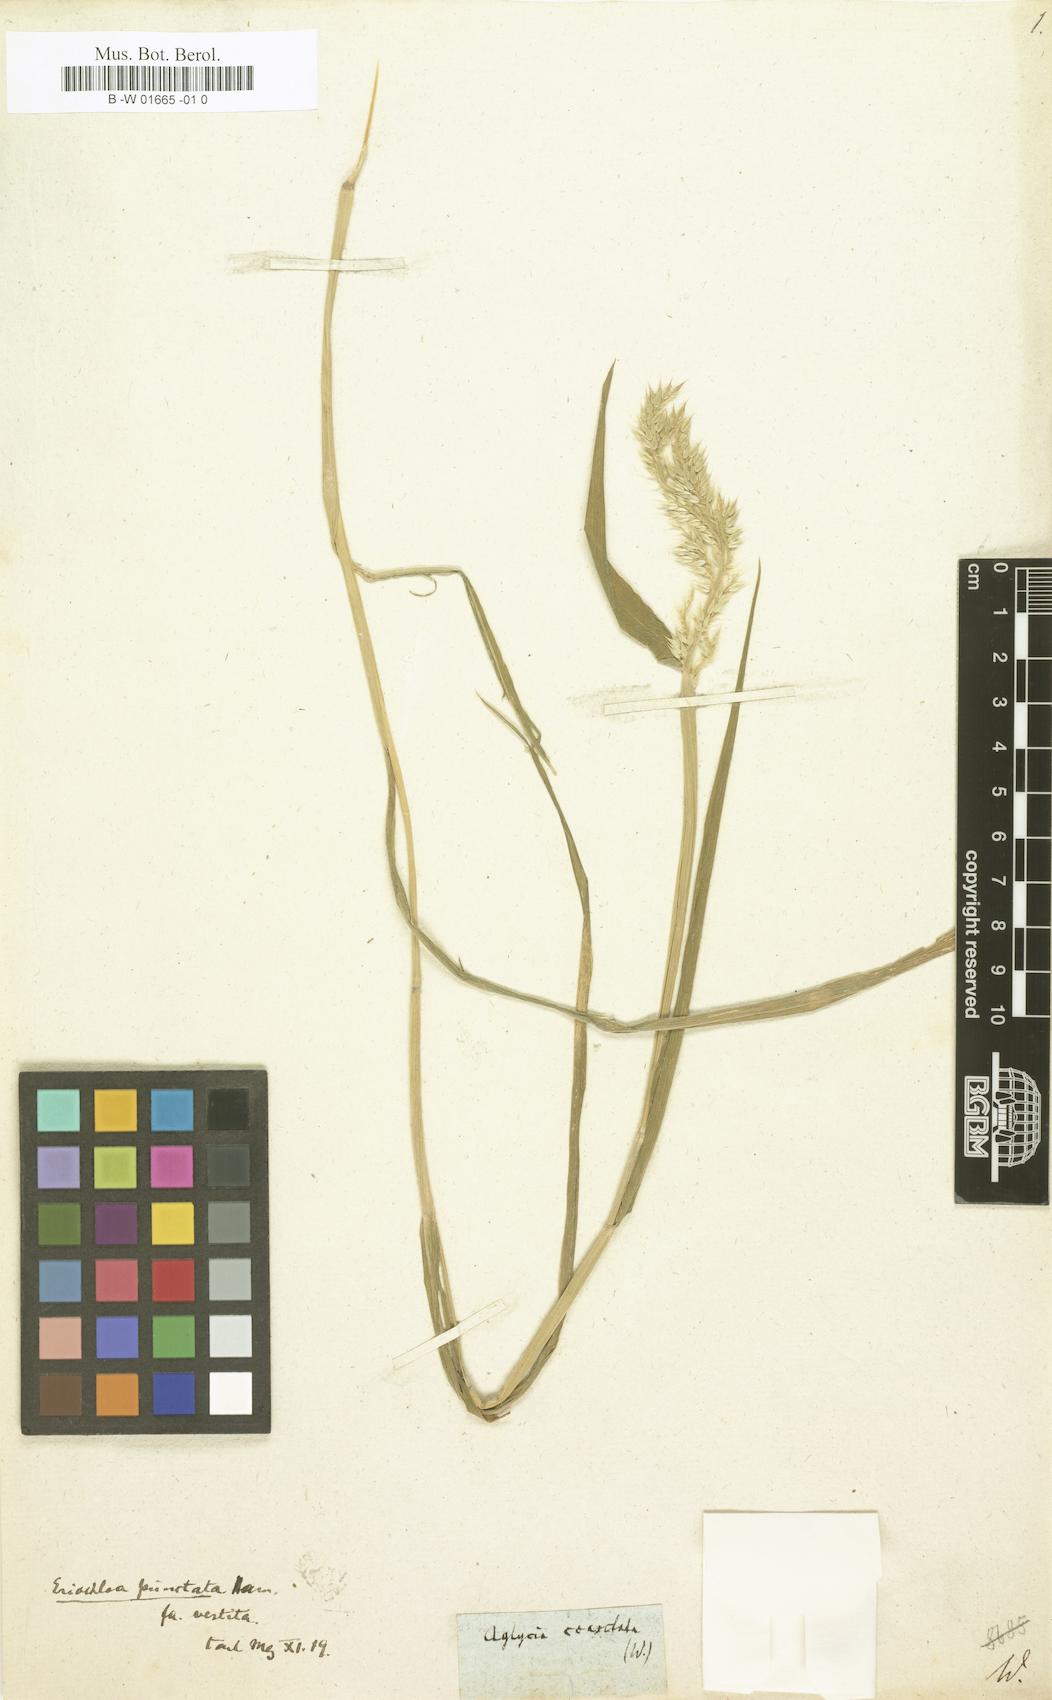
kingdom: Plantae
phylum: Tracheophyta
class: Liliopsida
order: Poales
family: Poaceae
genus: Urochloa
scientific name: Urochloa polystachya
